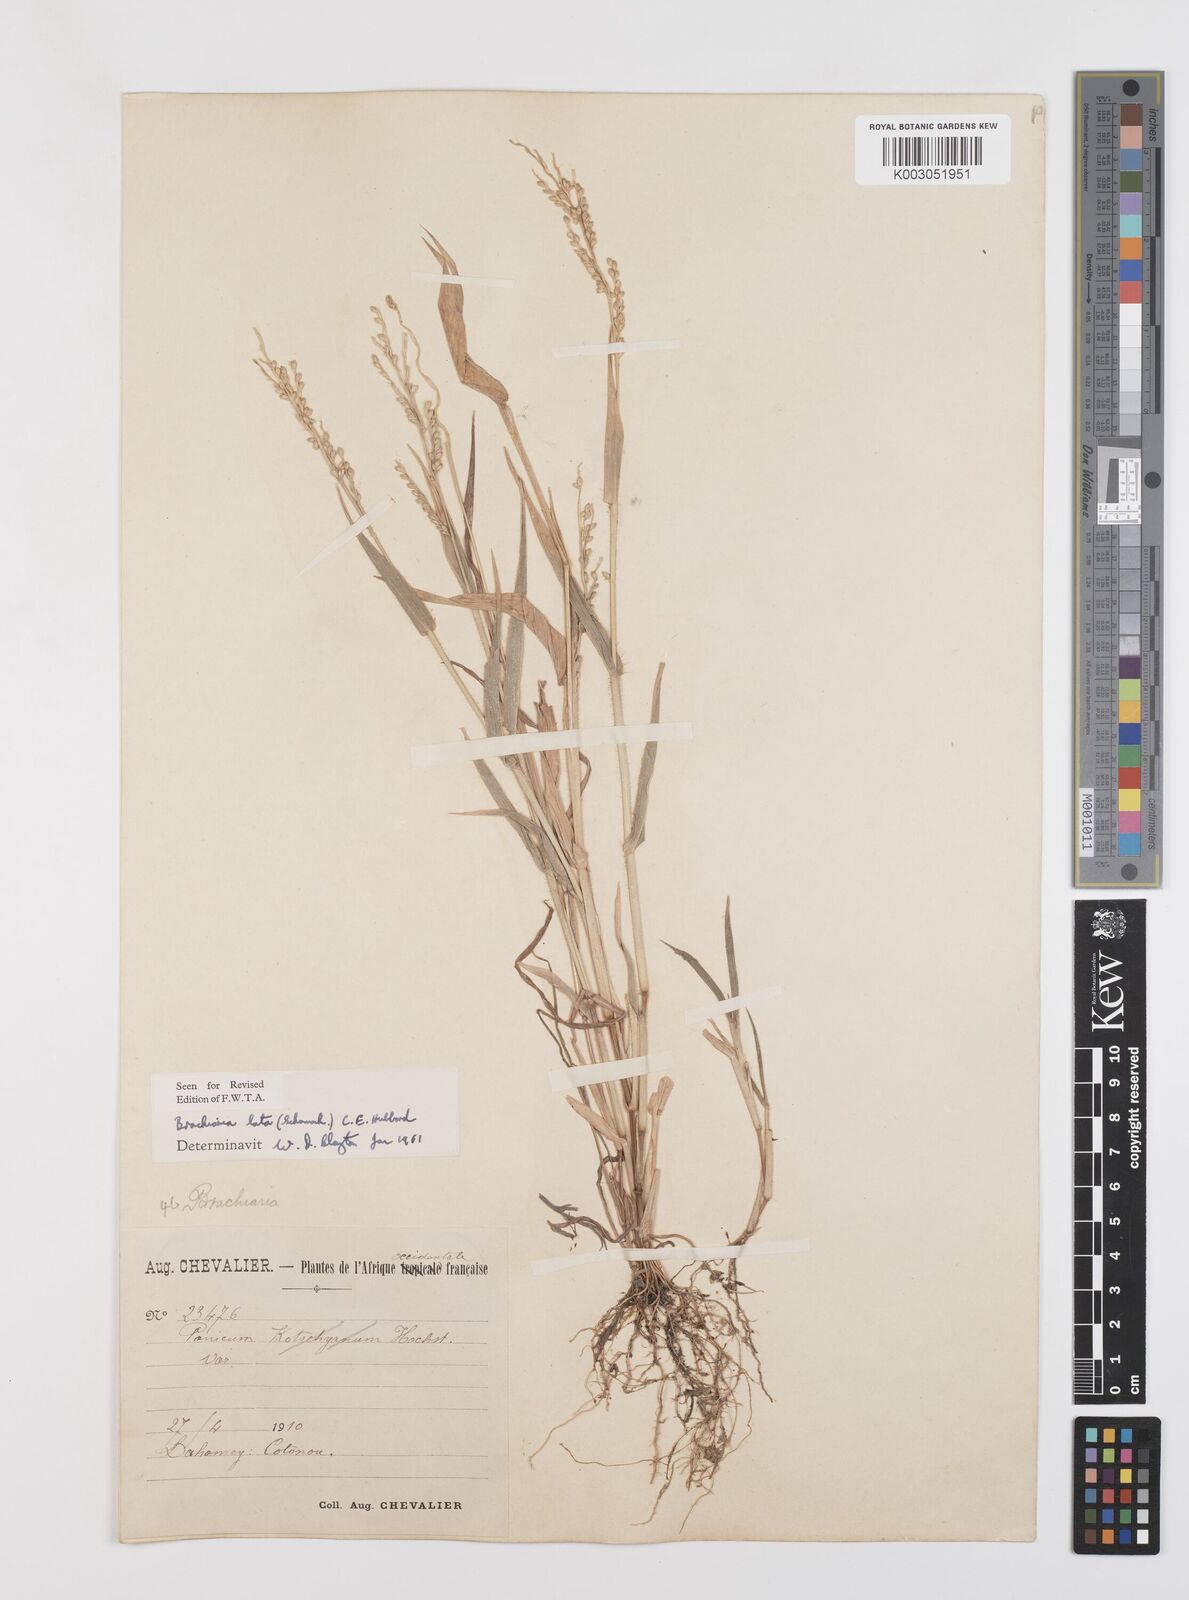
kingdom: Plantae
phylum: Tracheophyta
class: Liliopsida
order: Poales
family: Poaceae
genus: Urochloa
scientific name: Urochloa lata
